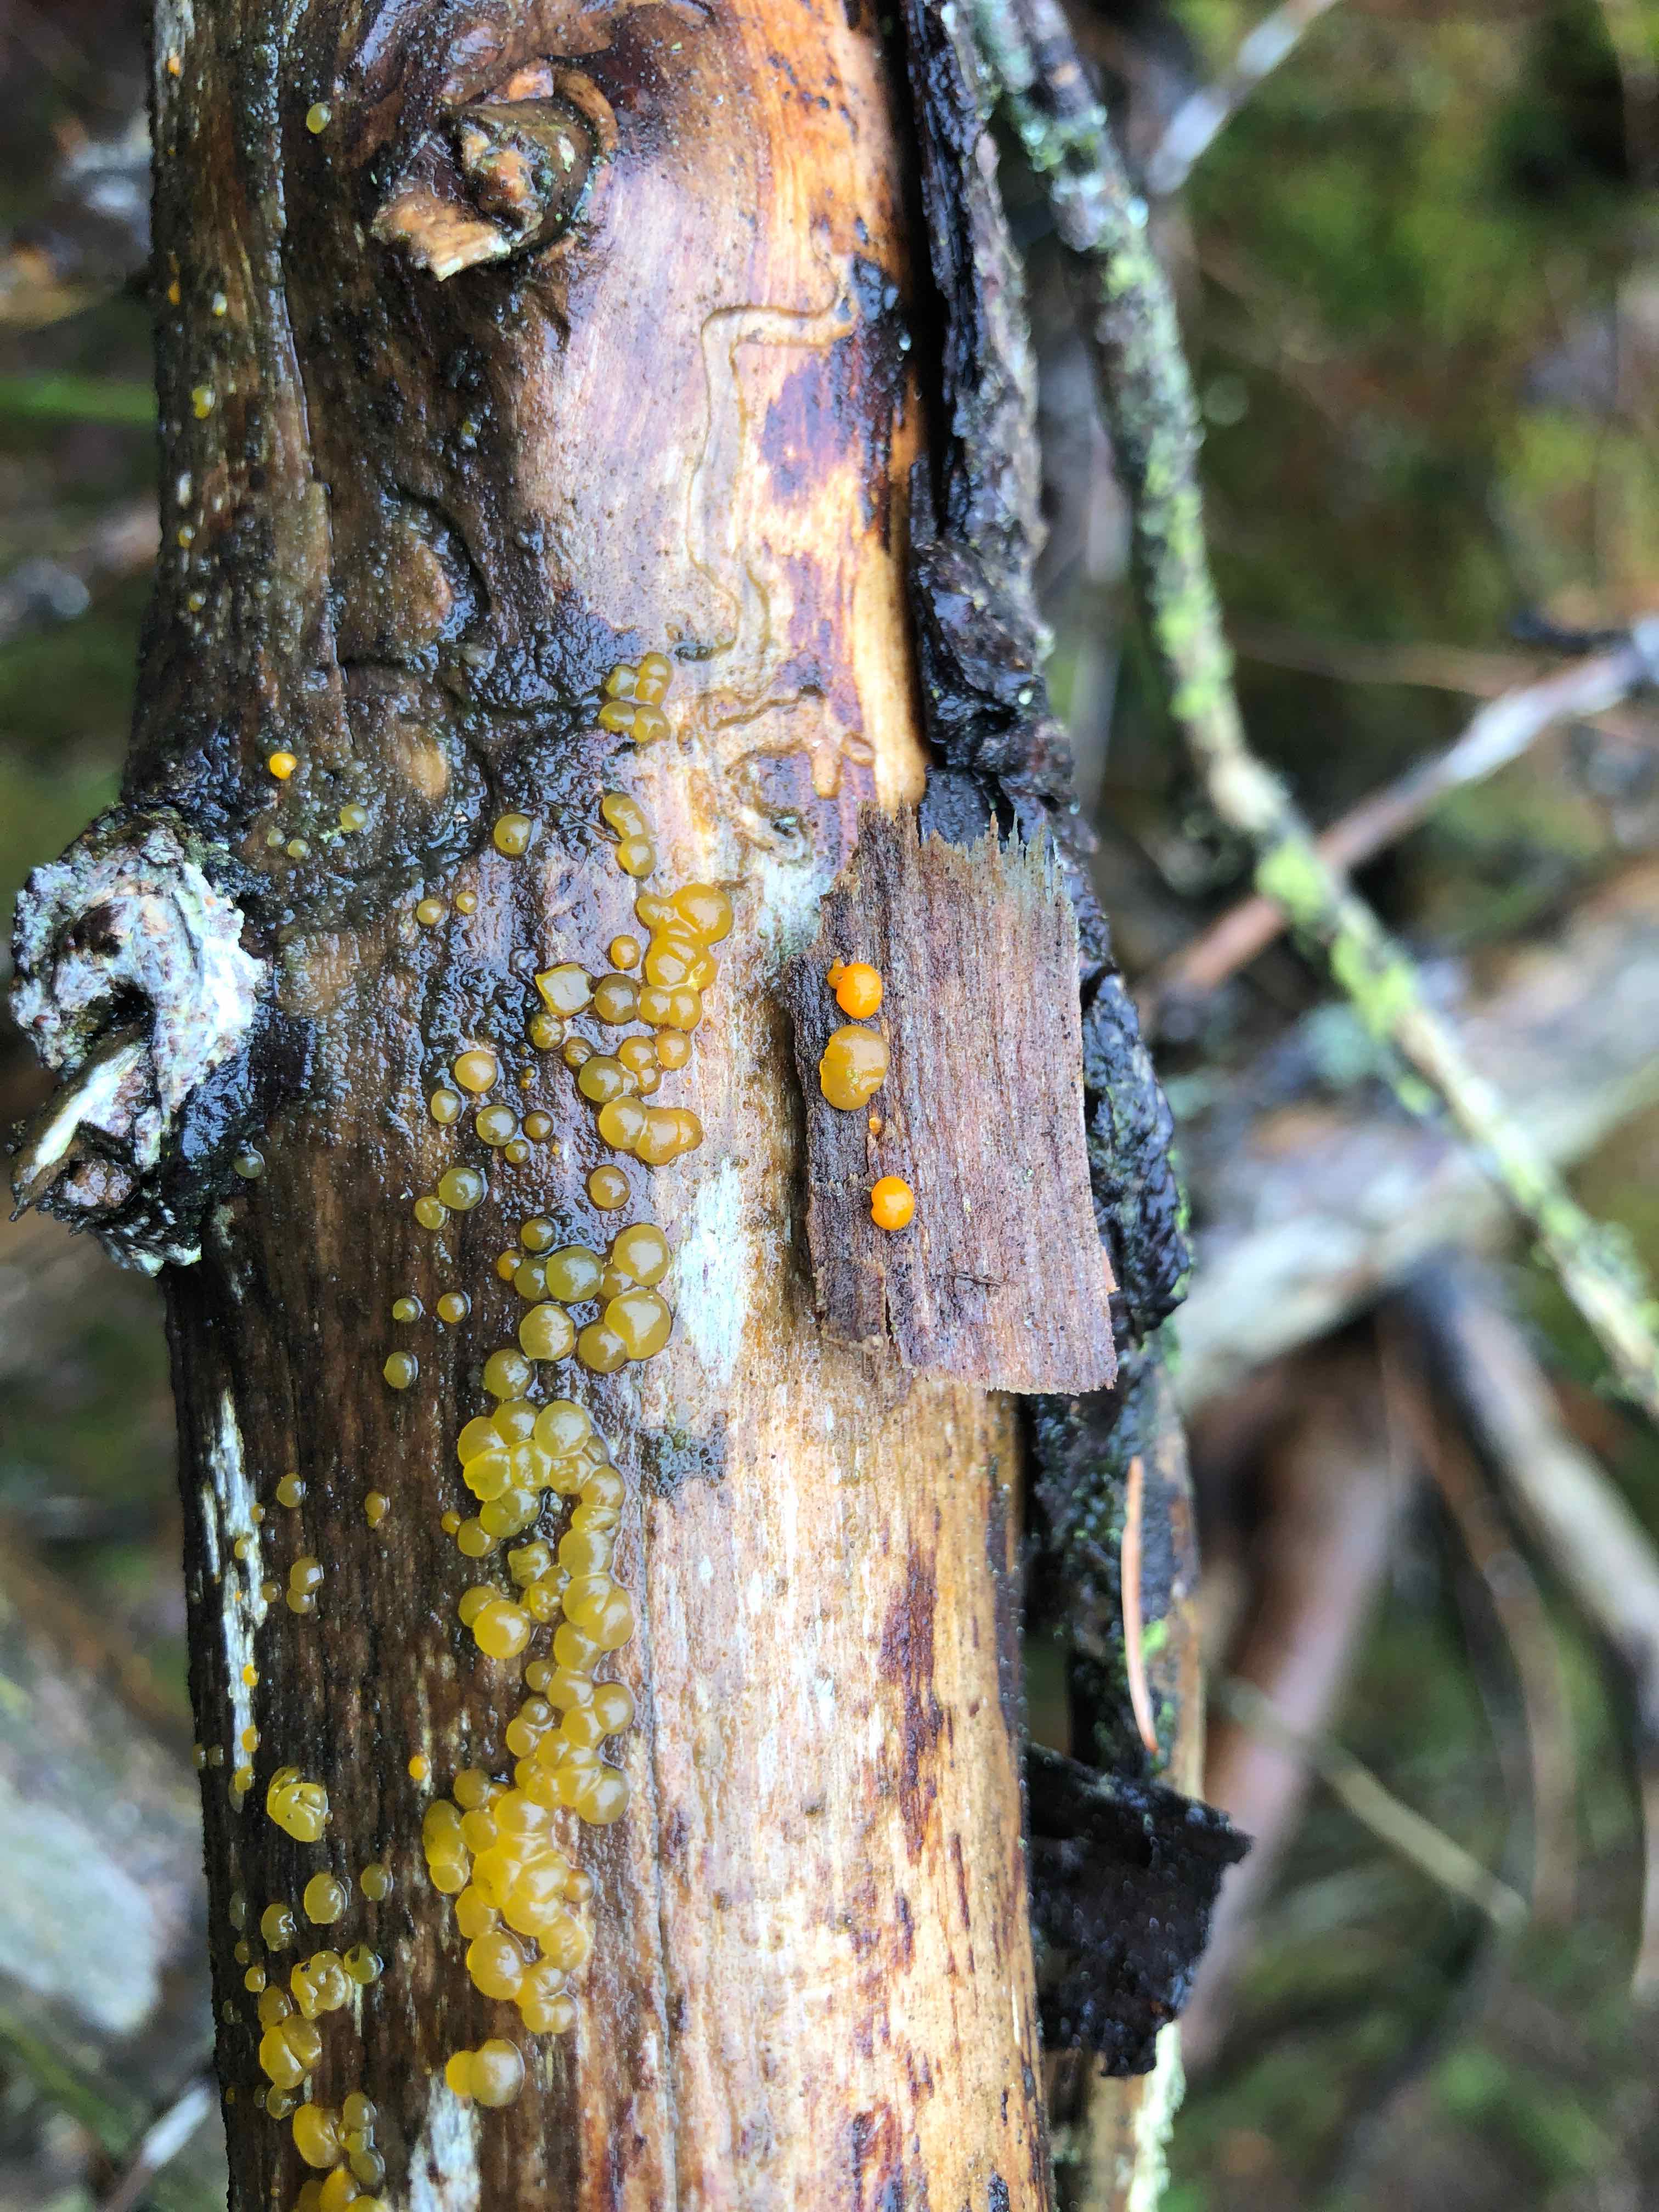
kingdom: Fungi
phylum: Basidiomycota
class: Dacrymycetes
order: Dacrymycetales
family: Dacrymycetaceae
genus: Dacrymyces
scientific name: Dacrymyces stillatus
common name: almindelig tåresvamp
